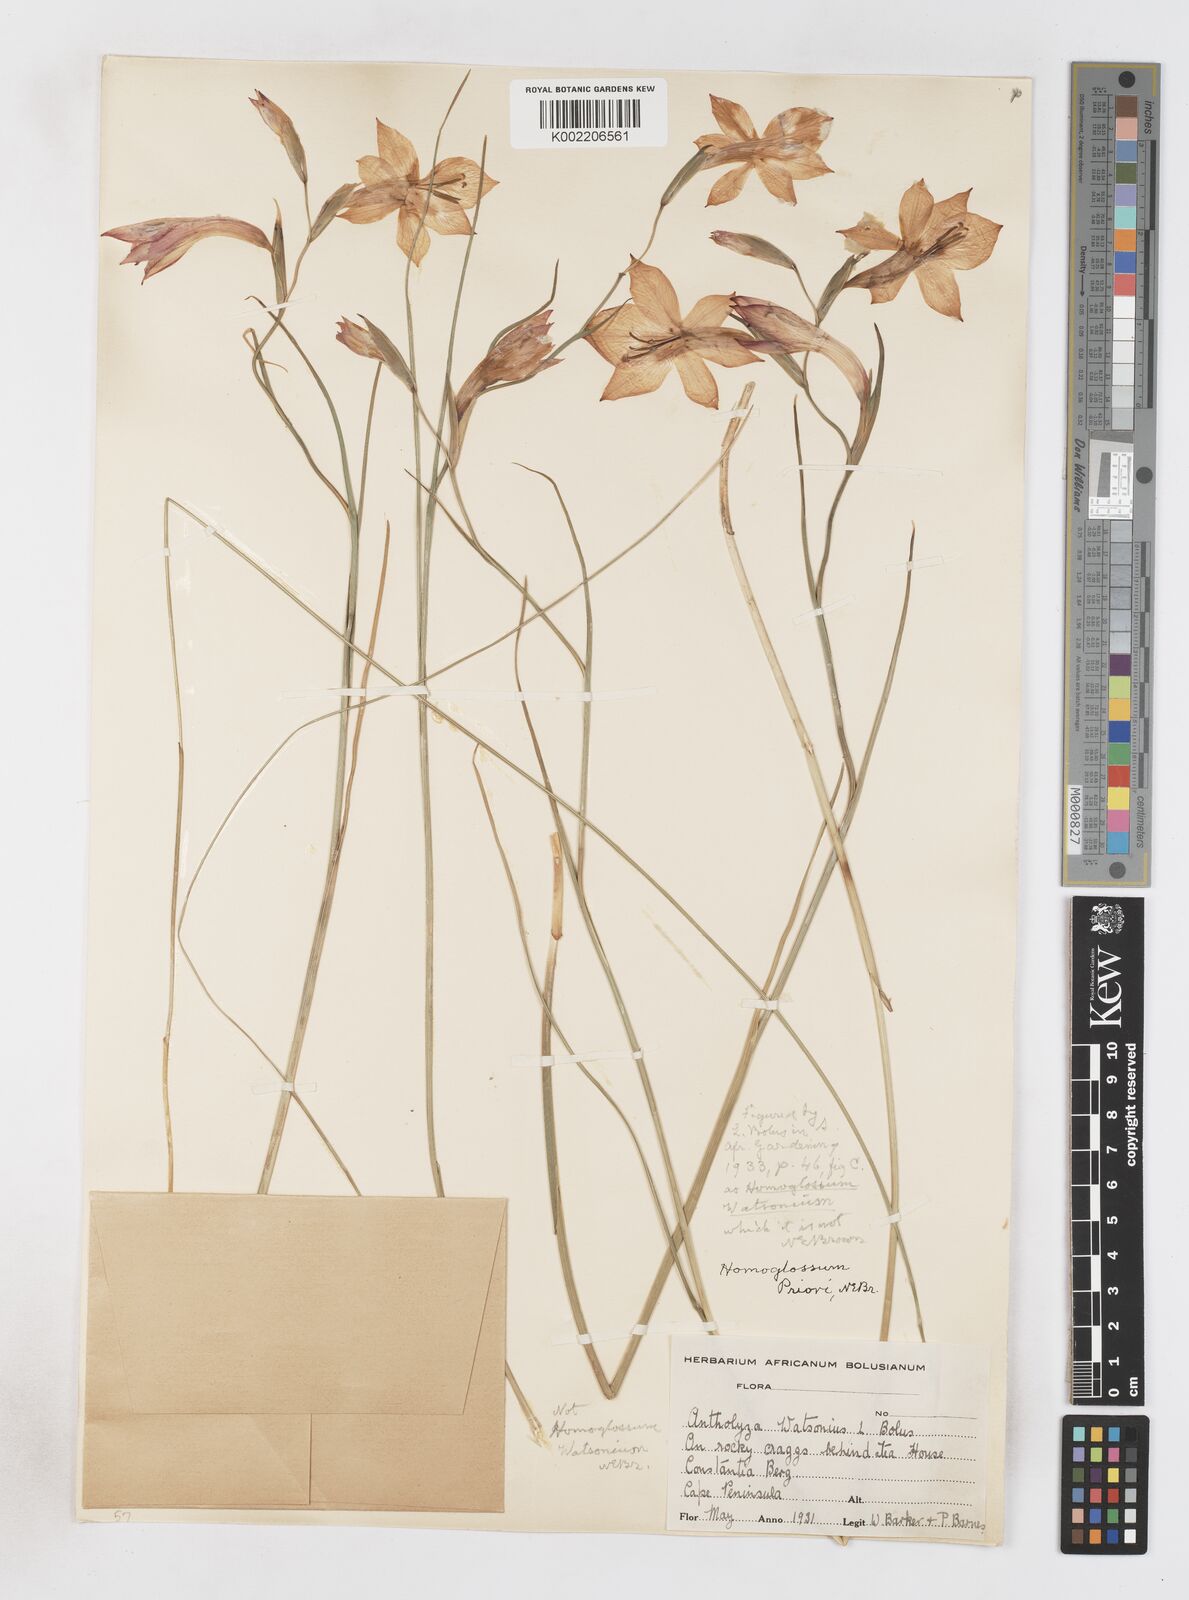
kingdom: Plantae
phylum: Tracheophyta
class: Liliopsida
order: Asparagales
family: Iridaceae
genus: Gladiolus
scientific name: Gladiolus priorii
